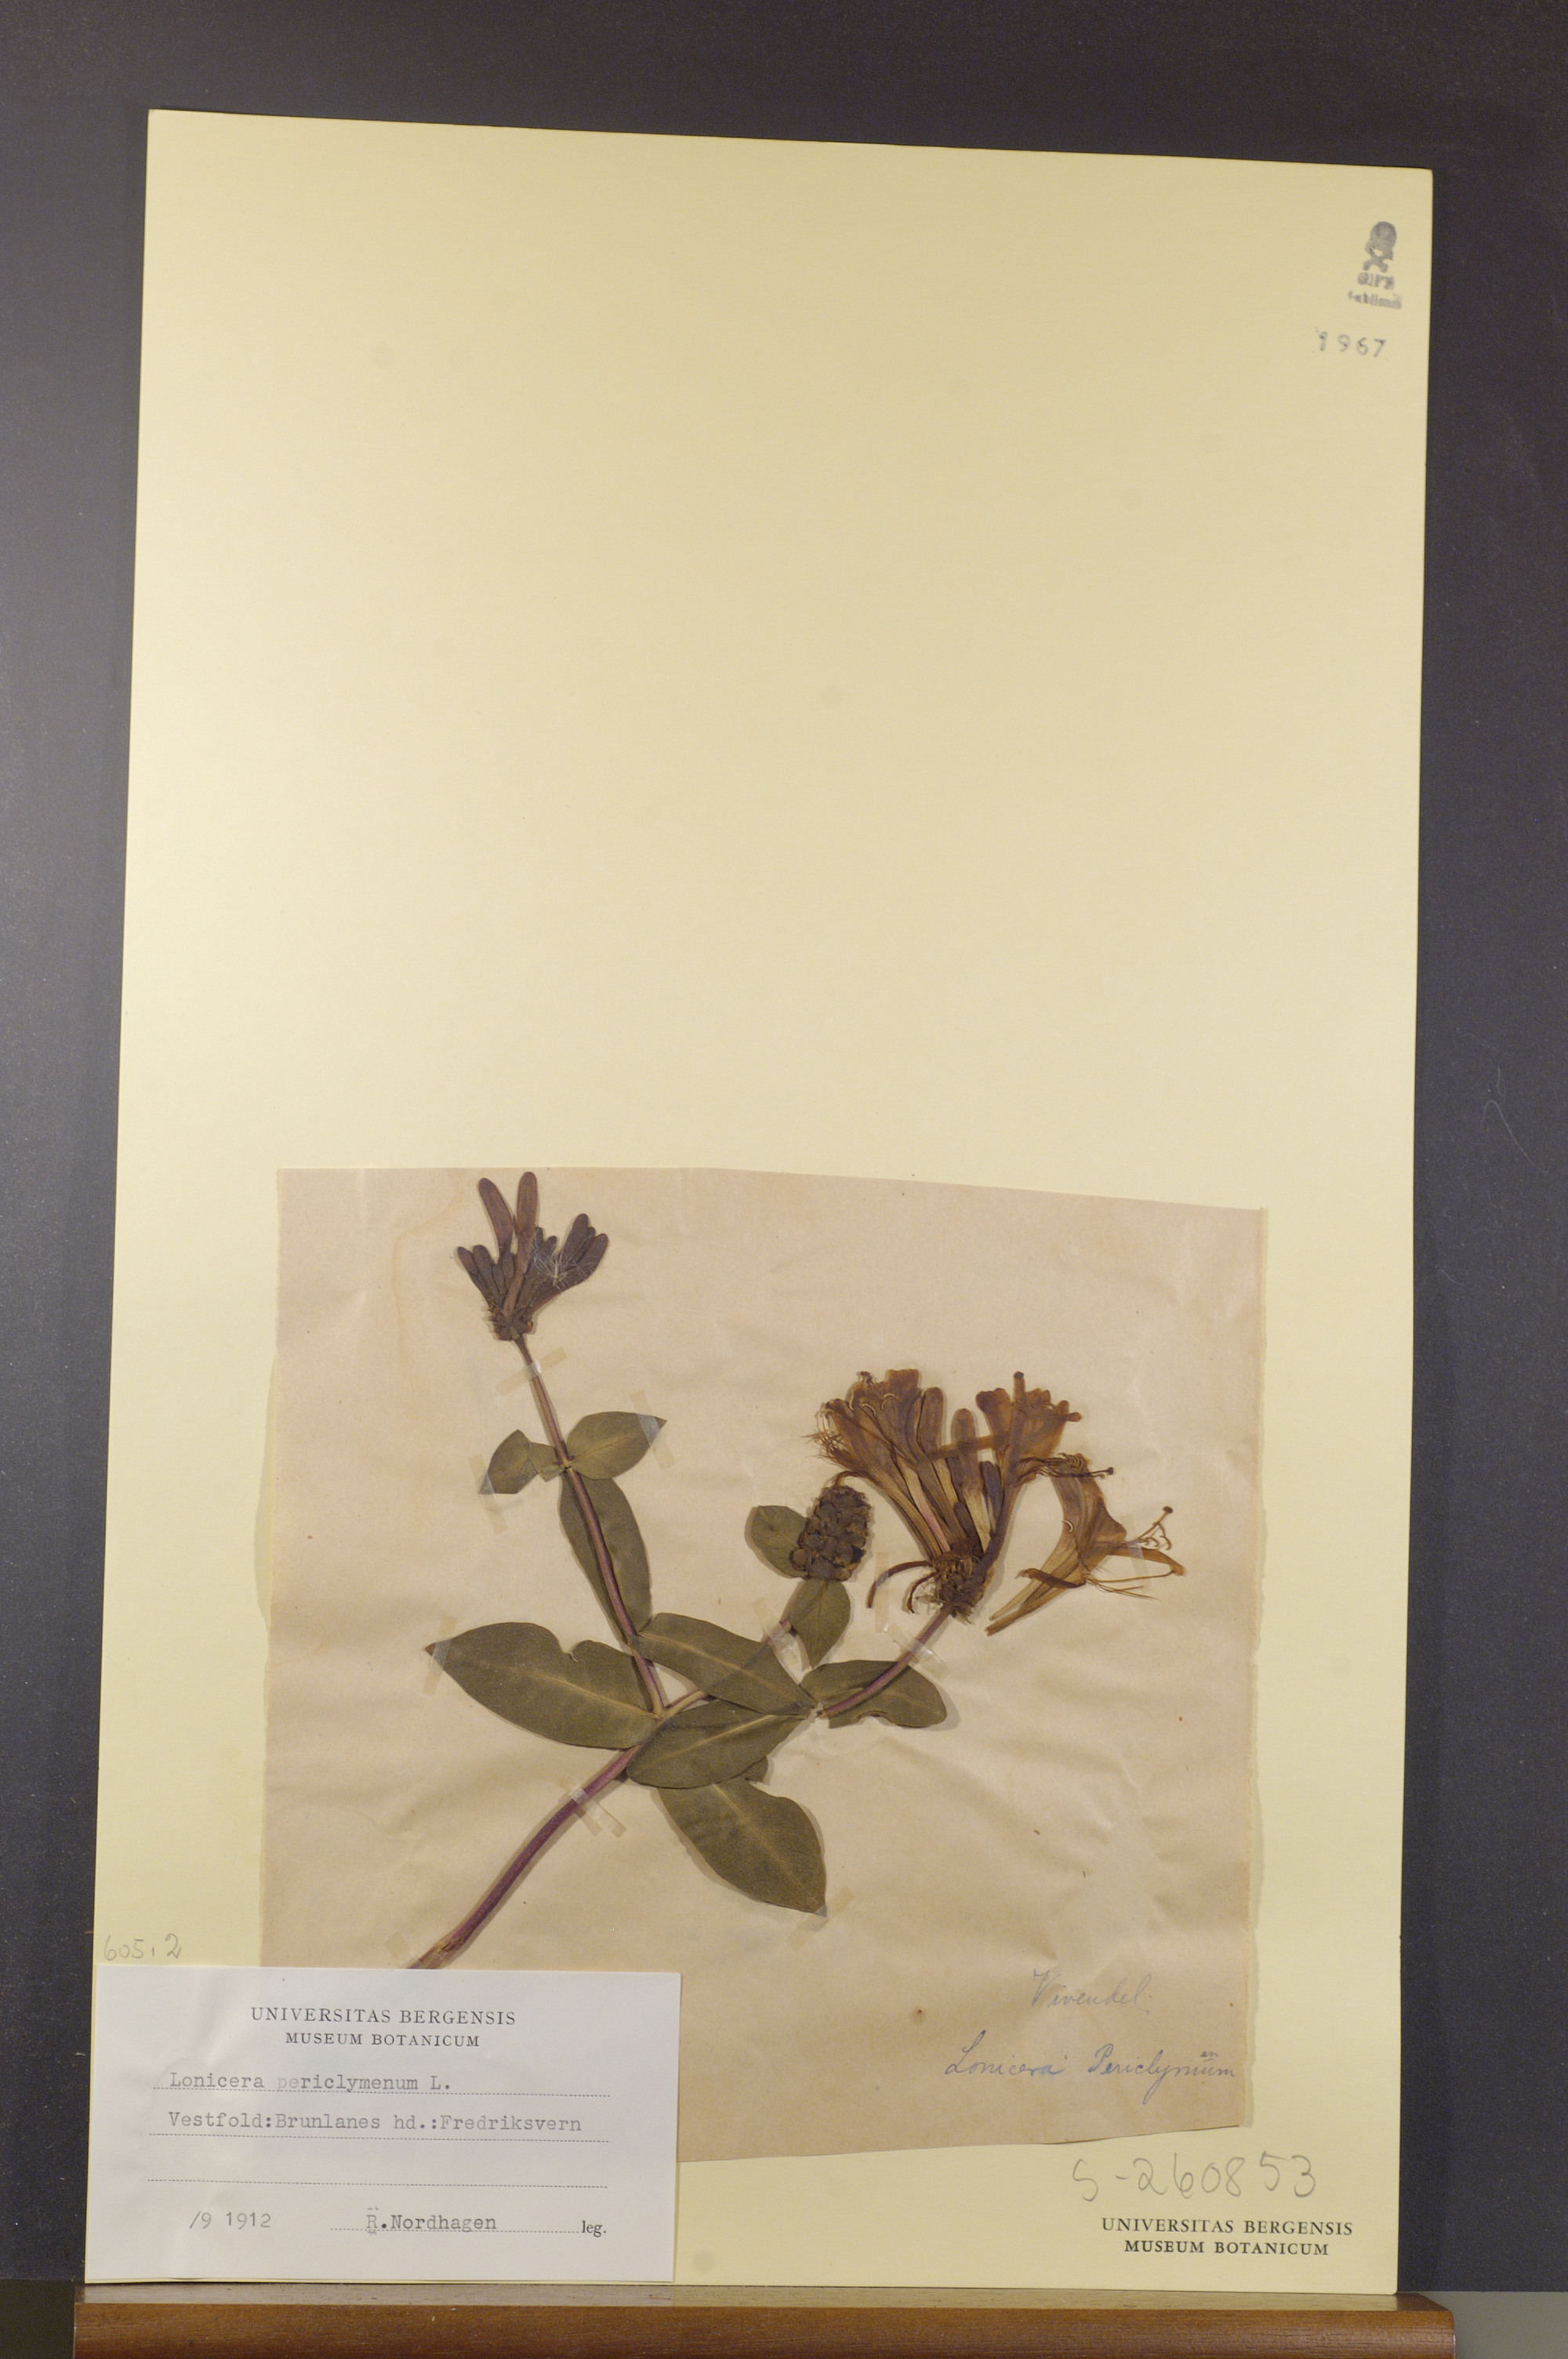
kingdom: Plantae
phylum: Tracheophyta
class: Magnoliopsida
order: Dipsacales
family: Caprifoliaceae
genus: Lonicera
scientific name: Lonicera periclymenum
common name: European honeysuckle
